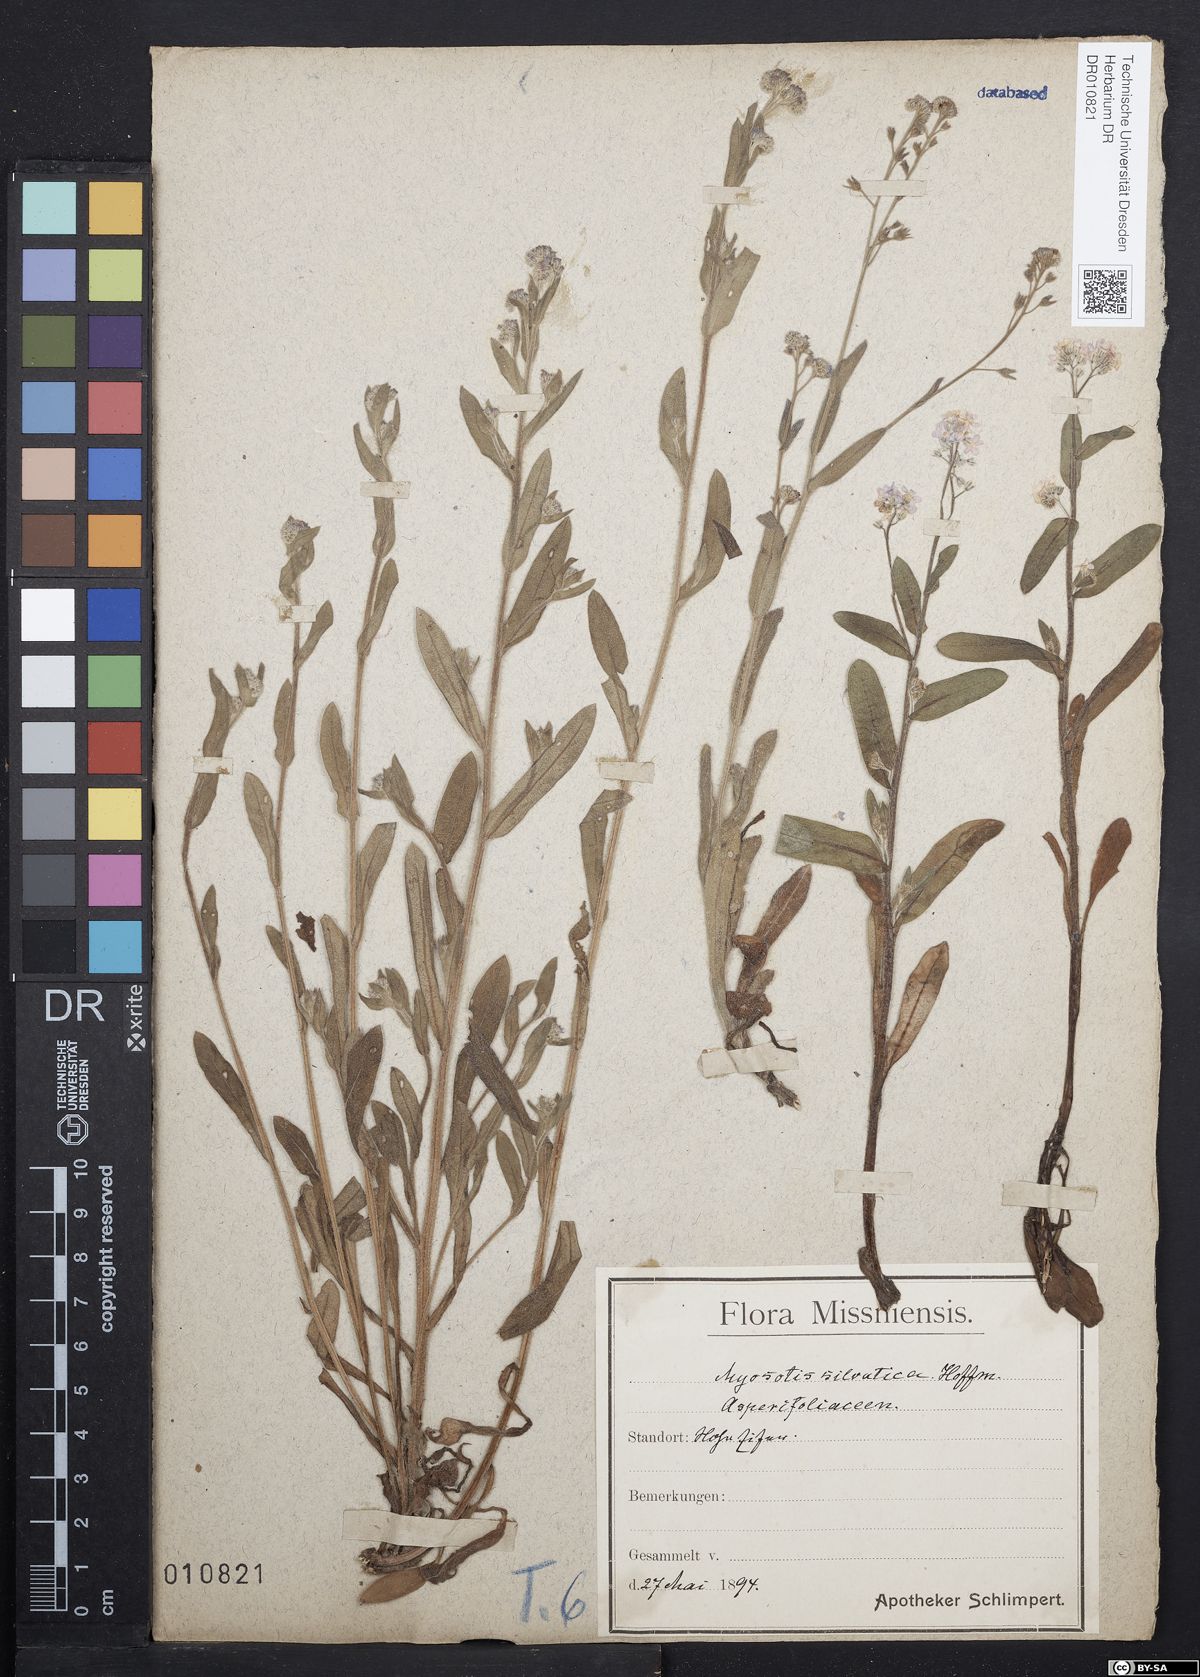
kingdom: Plantae
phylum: Tracheophyta
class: Magnoliopsida
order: Boraginales
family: Boraginaceae
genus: Myosotis
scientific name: Myosotis sylvatica
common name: Wood forget-me-not
